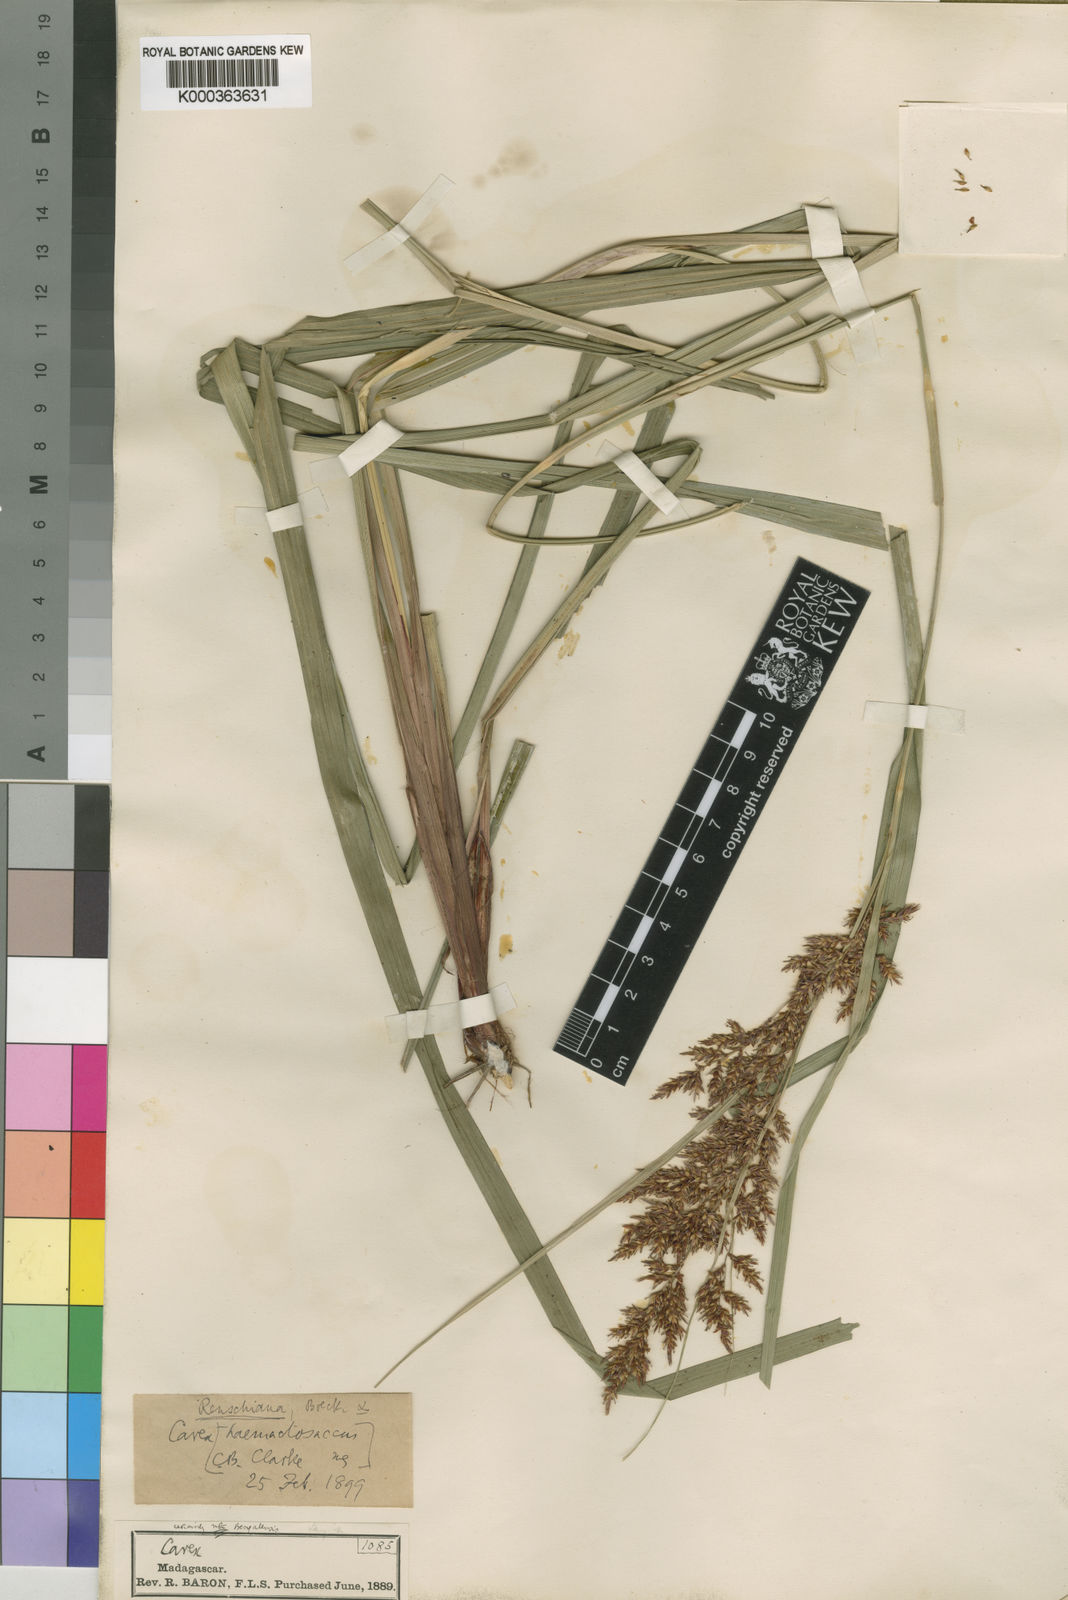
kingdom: Plantae
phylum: Tracheophyta
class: Liliopsida
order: Poales
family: Cyperaceae
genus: Carex
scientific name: Carex renschiana
